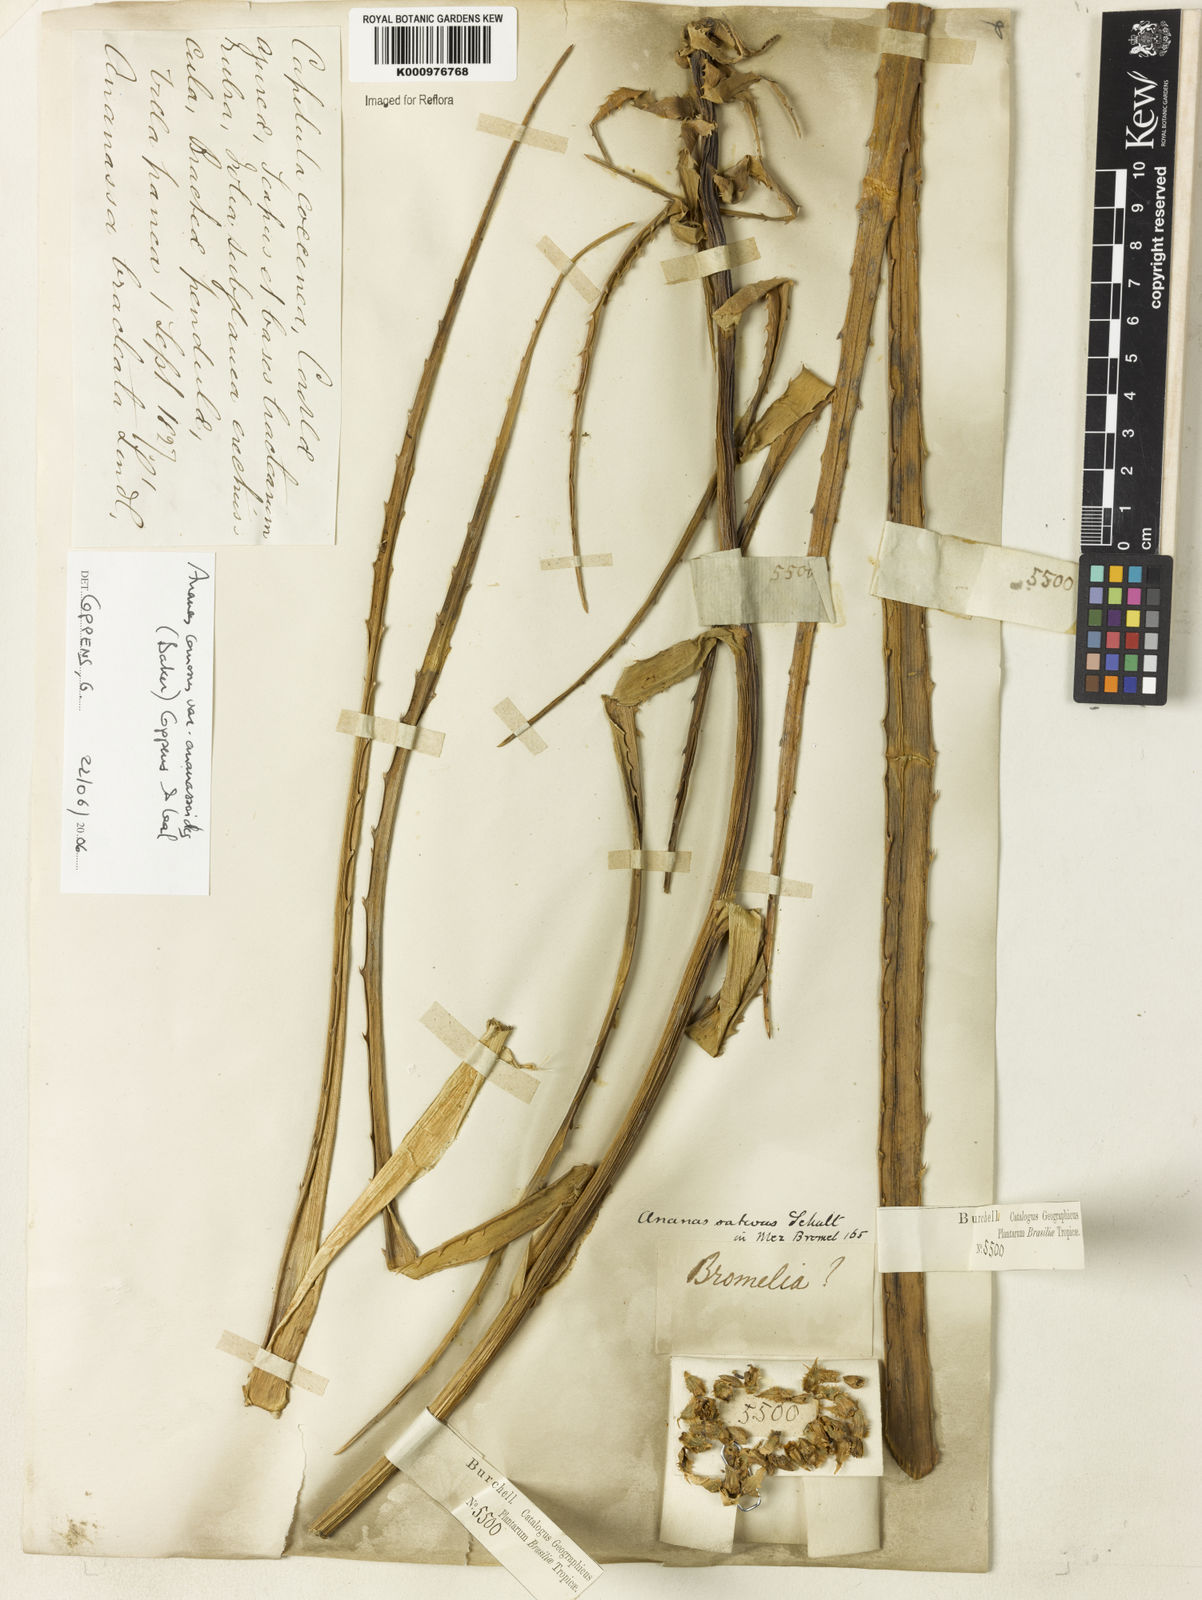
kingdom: Plantae
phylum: Tracheophyta
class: Liliopsida
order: Poales
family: Bromeliaceae
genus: Ananas
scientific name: Ananas comosus
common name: Pineapple
